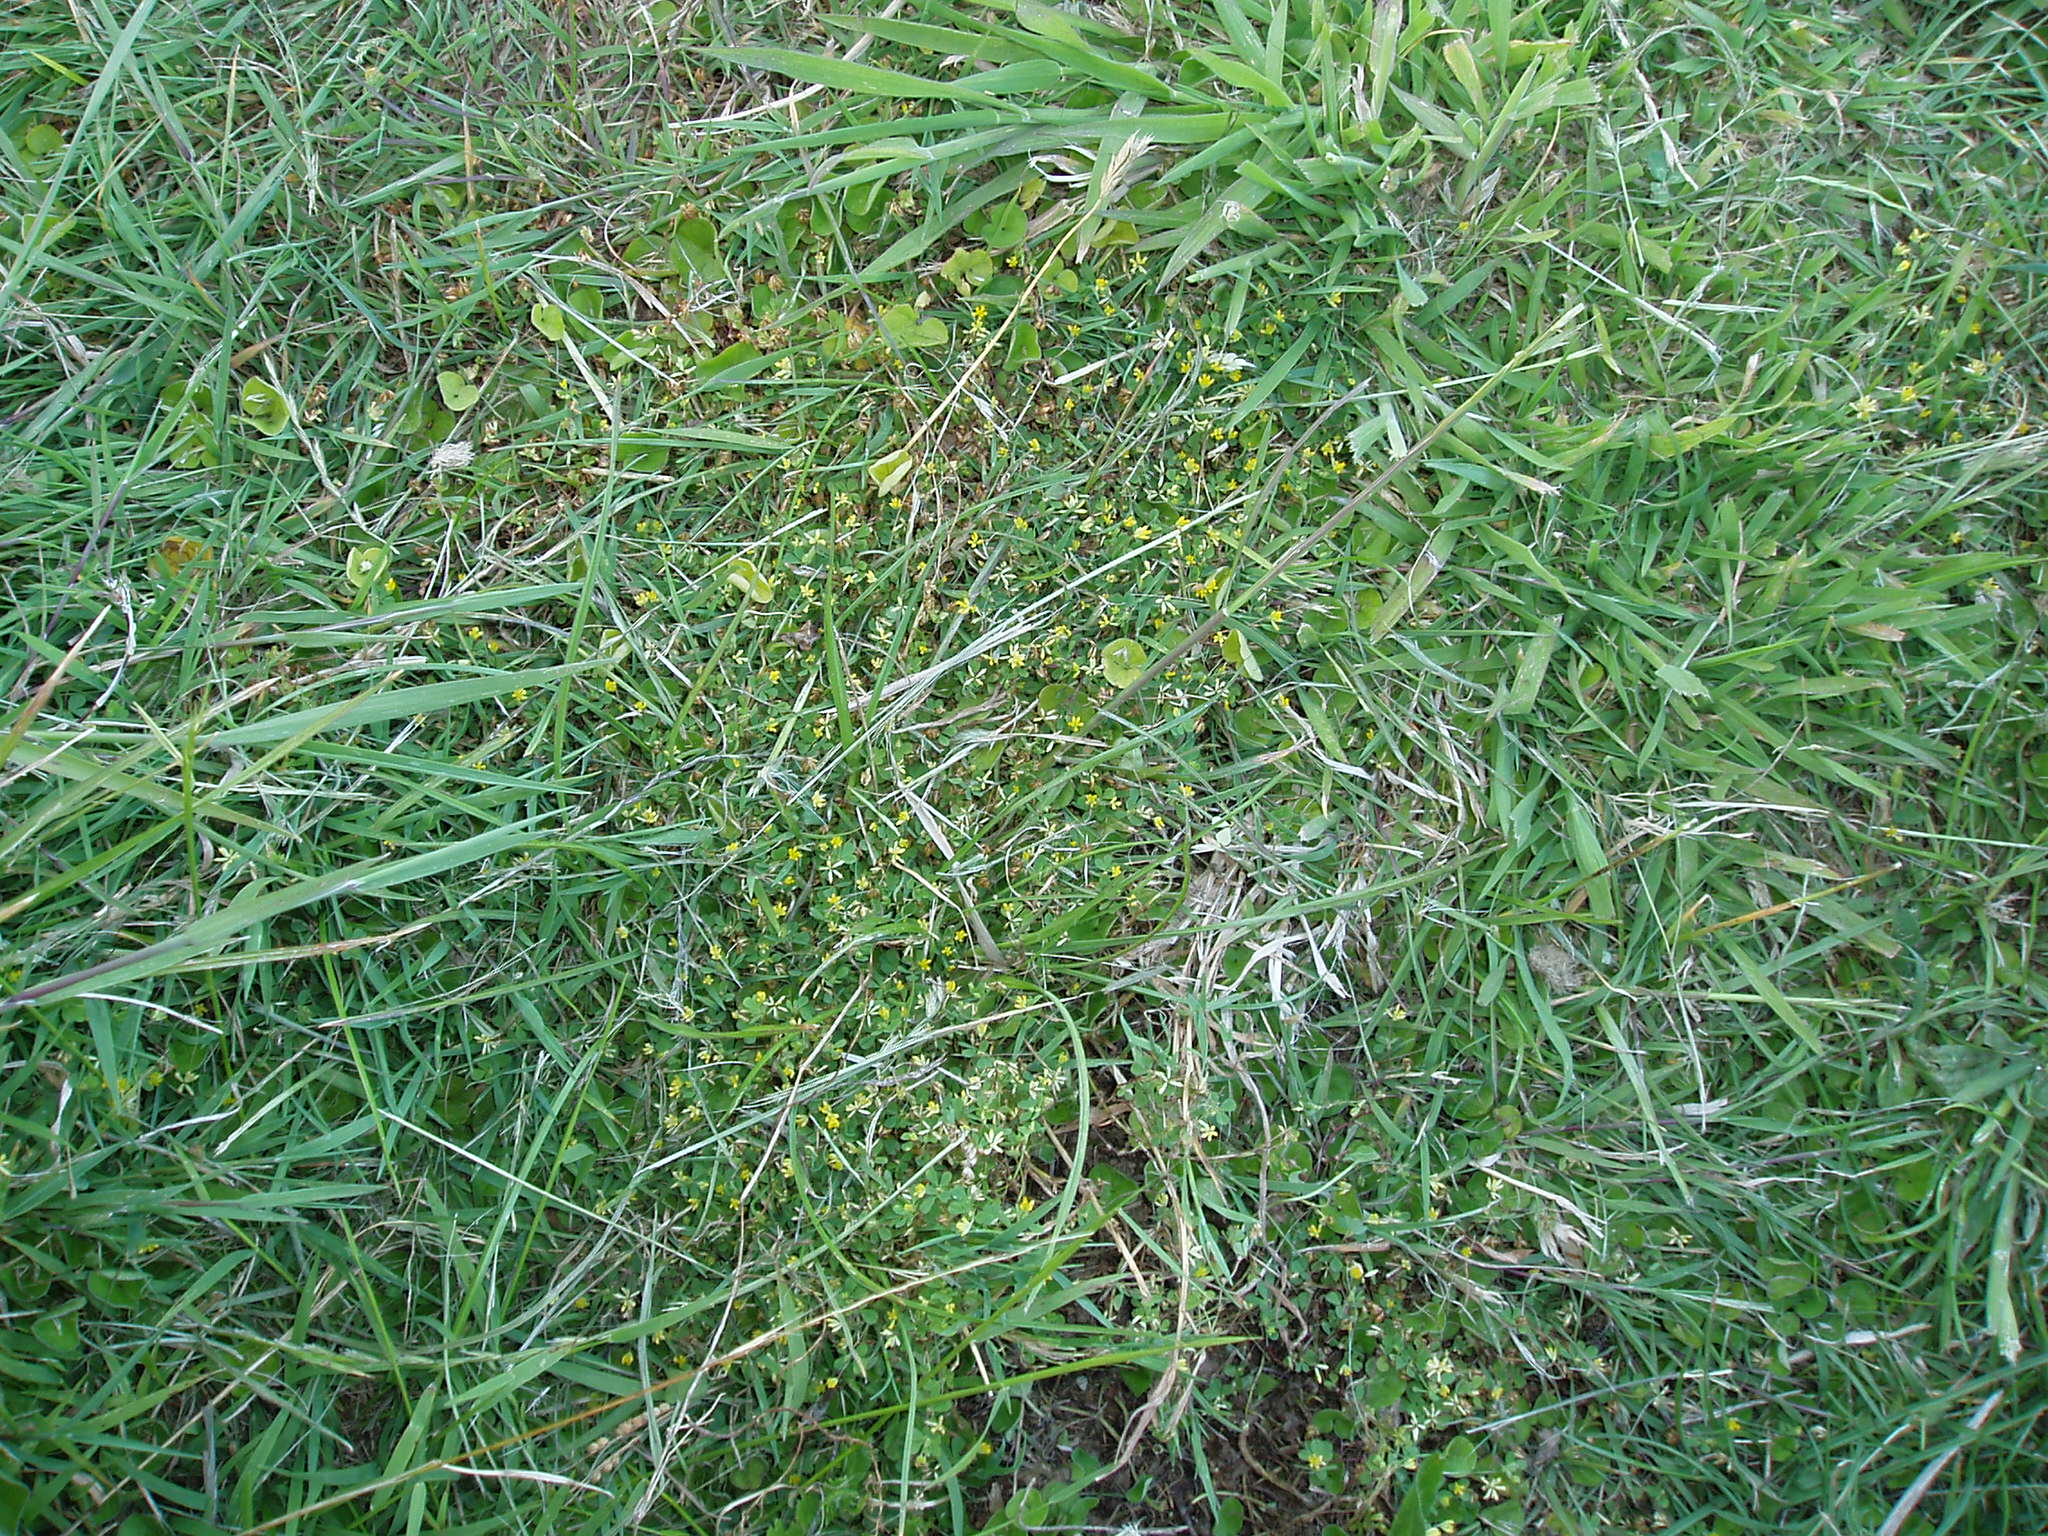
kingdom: Plantae
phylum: Tracheophyta
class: Magnoliopsida
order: Fabales
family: Fabaceae
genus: Trifolium
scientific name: Trifolium dubium
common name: Suckling clover
